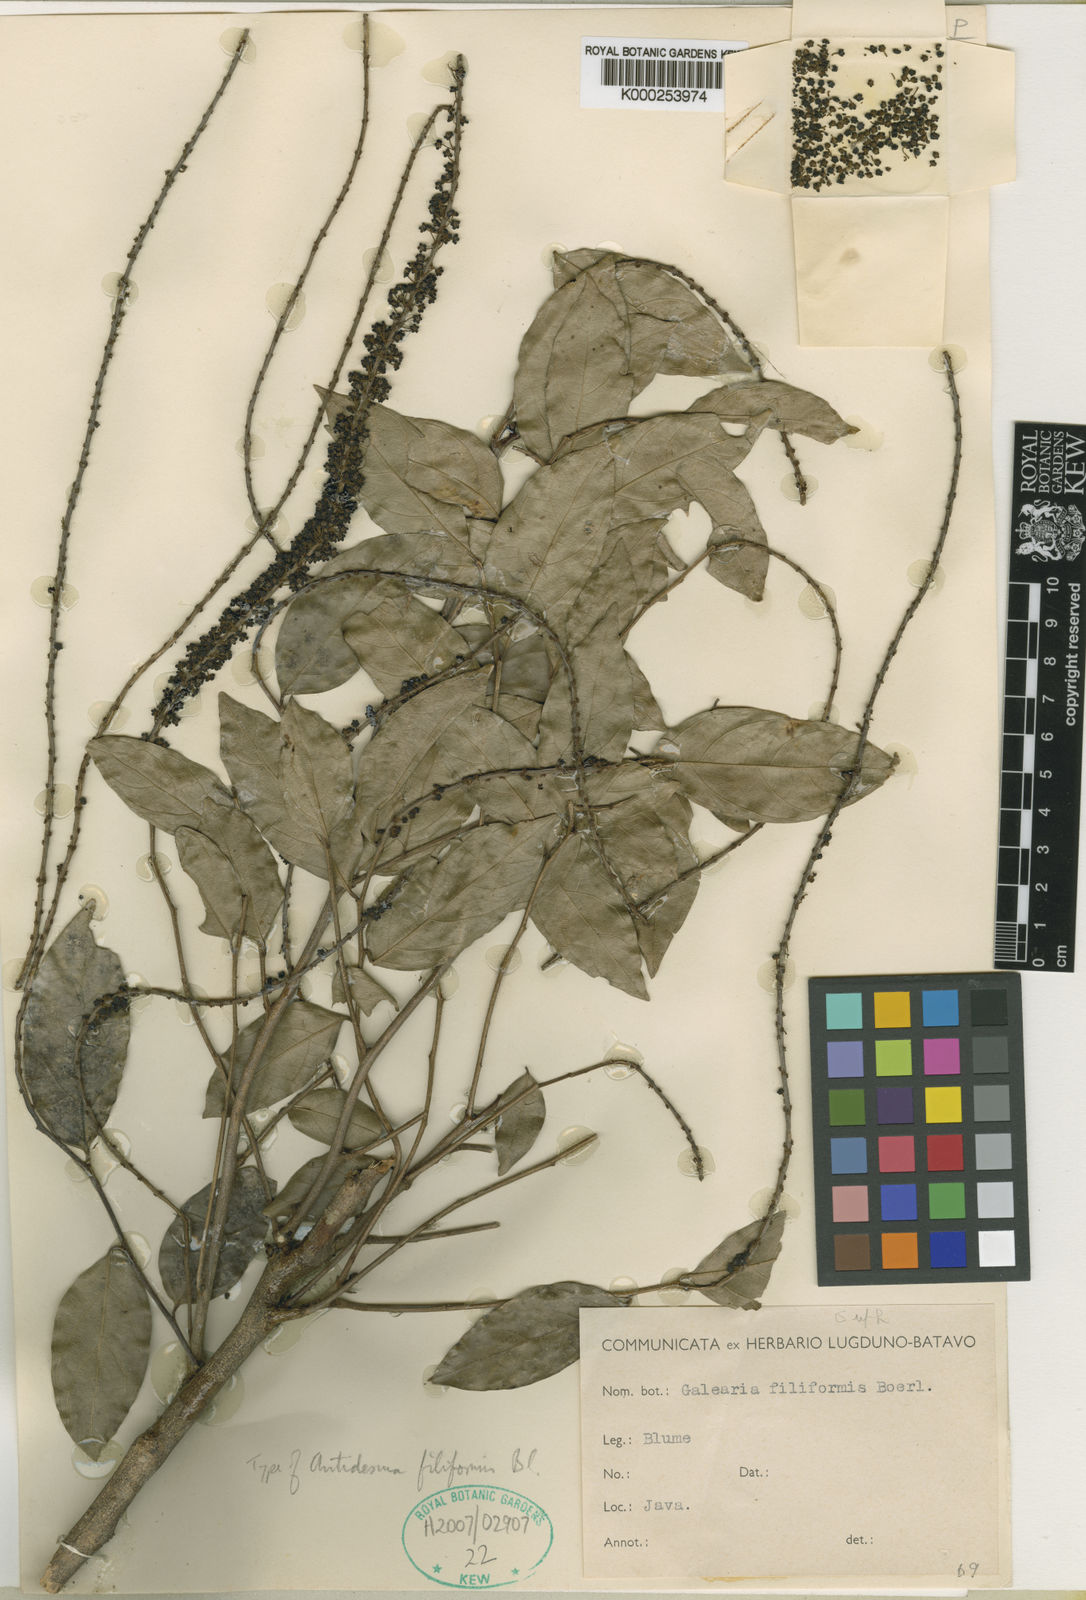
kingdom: Plantae
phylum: Tracheophyta
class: Magnoliopsida
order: Malpighiales
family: Pandaceae
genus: Galearia
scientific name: Galearia filiformis
